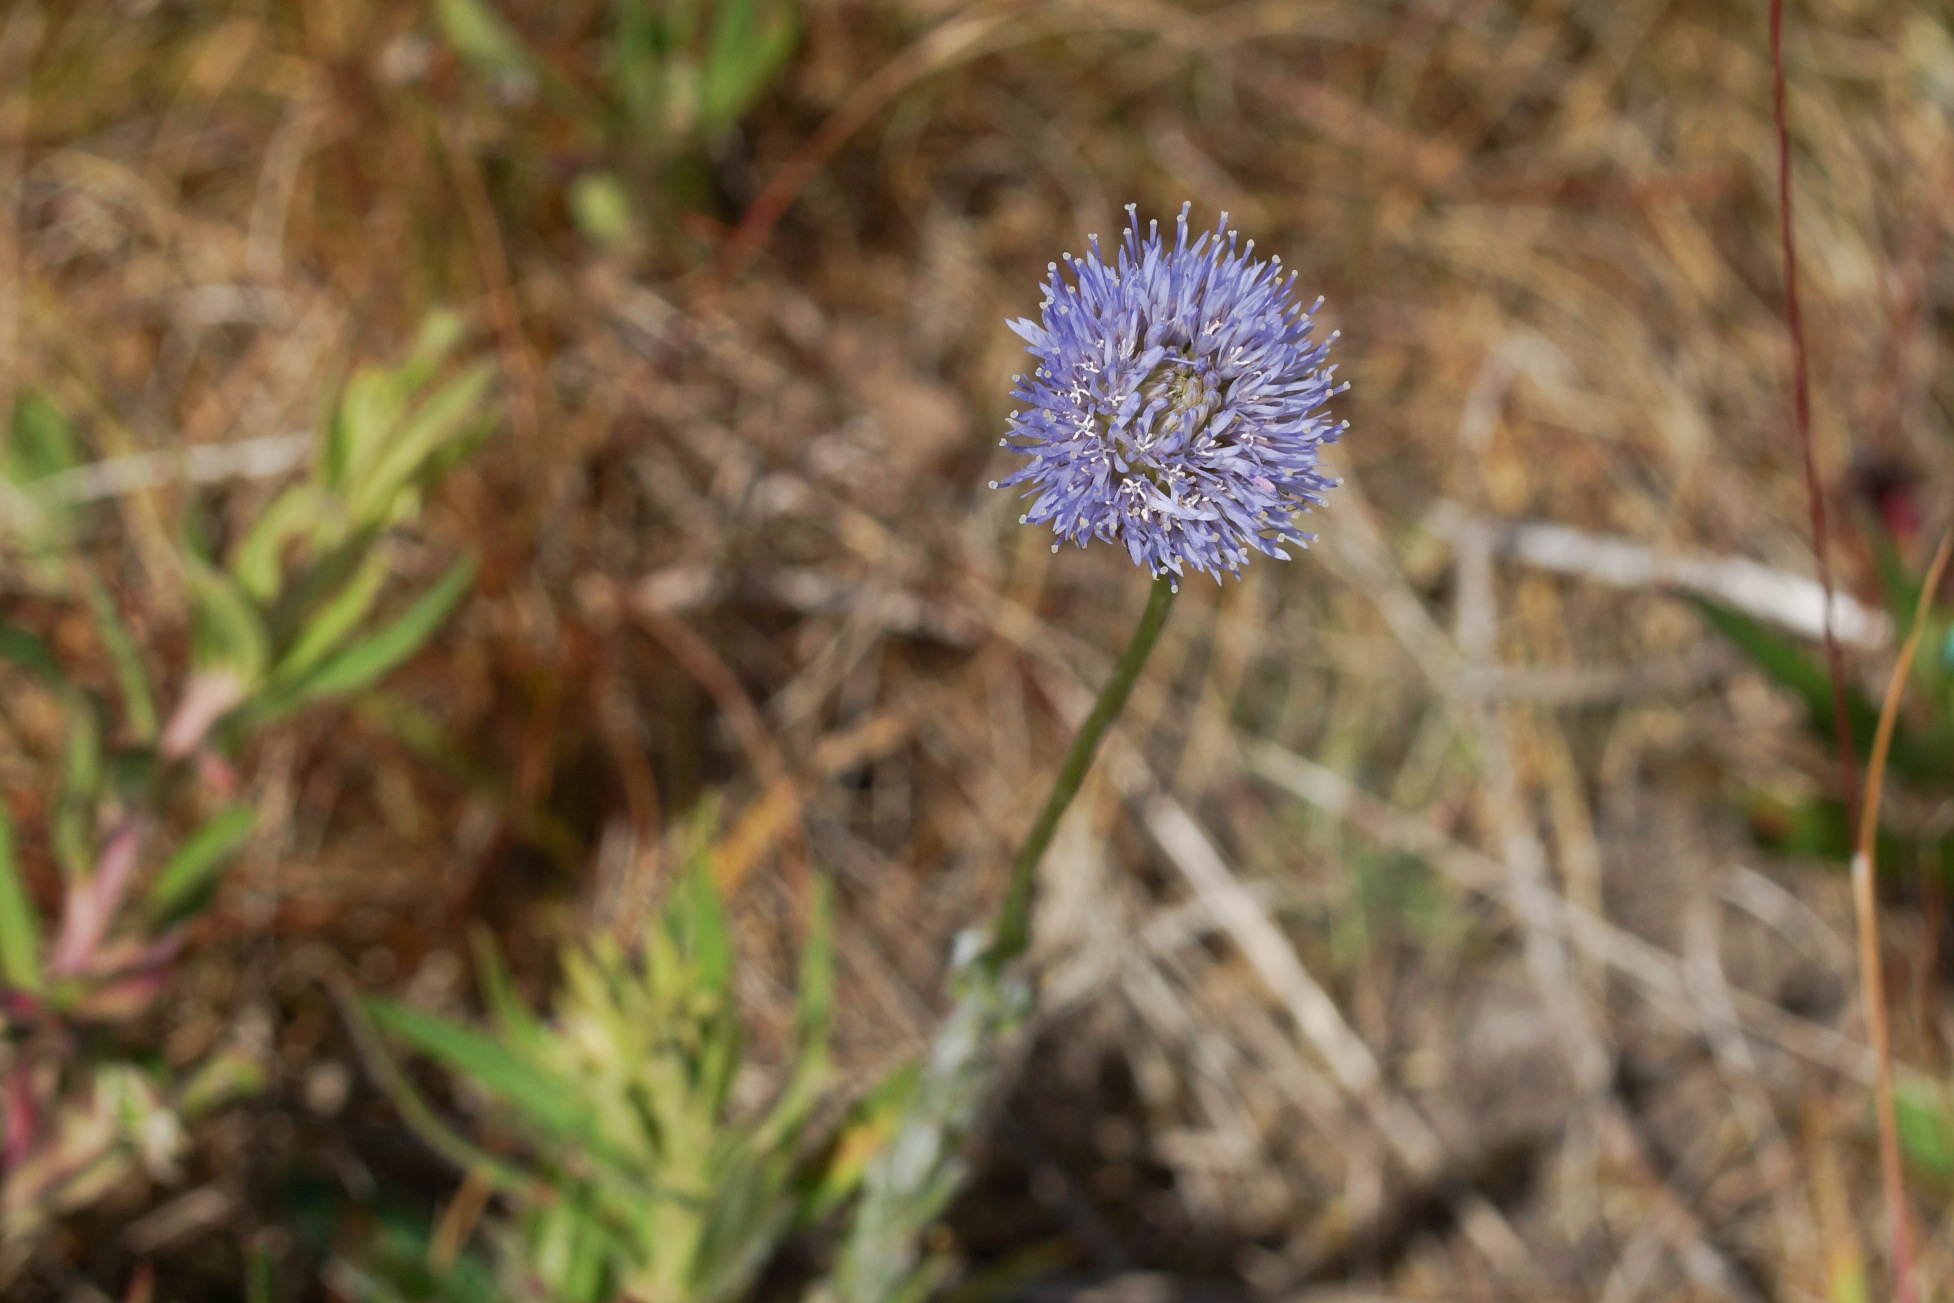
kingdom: Plantae
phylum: Tracheophyta
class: Magnoliopsida
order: Asterales
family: Campanulaceae
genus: Jasione
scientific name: Jasione montana
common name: Blåmunke
